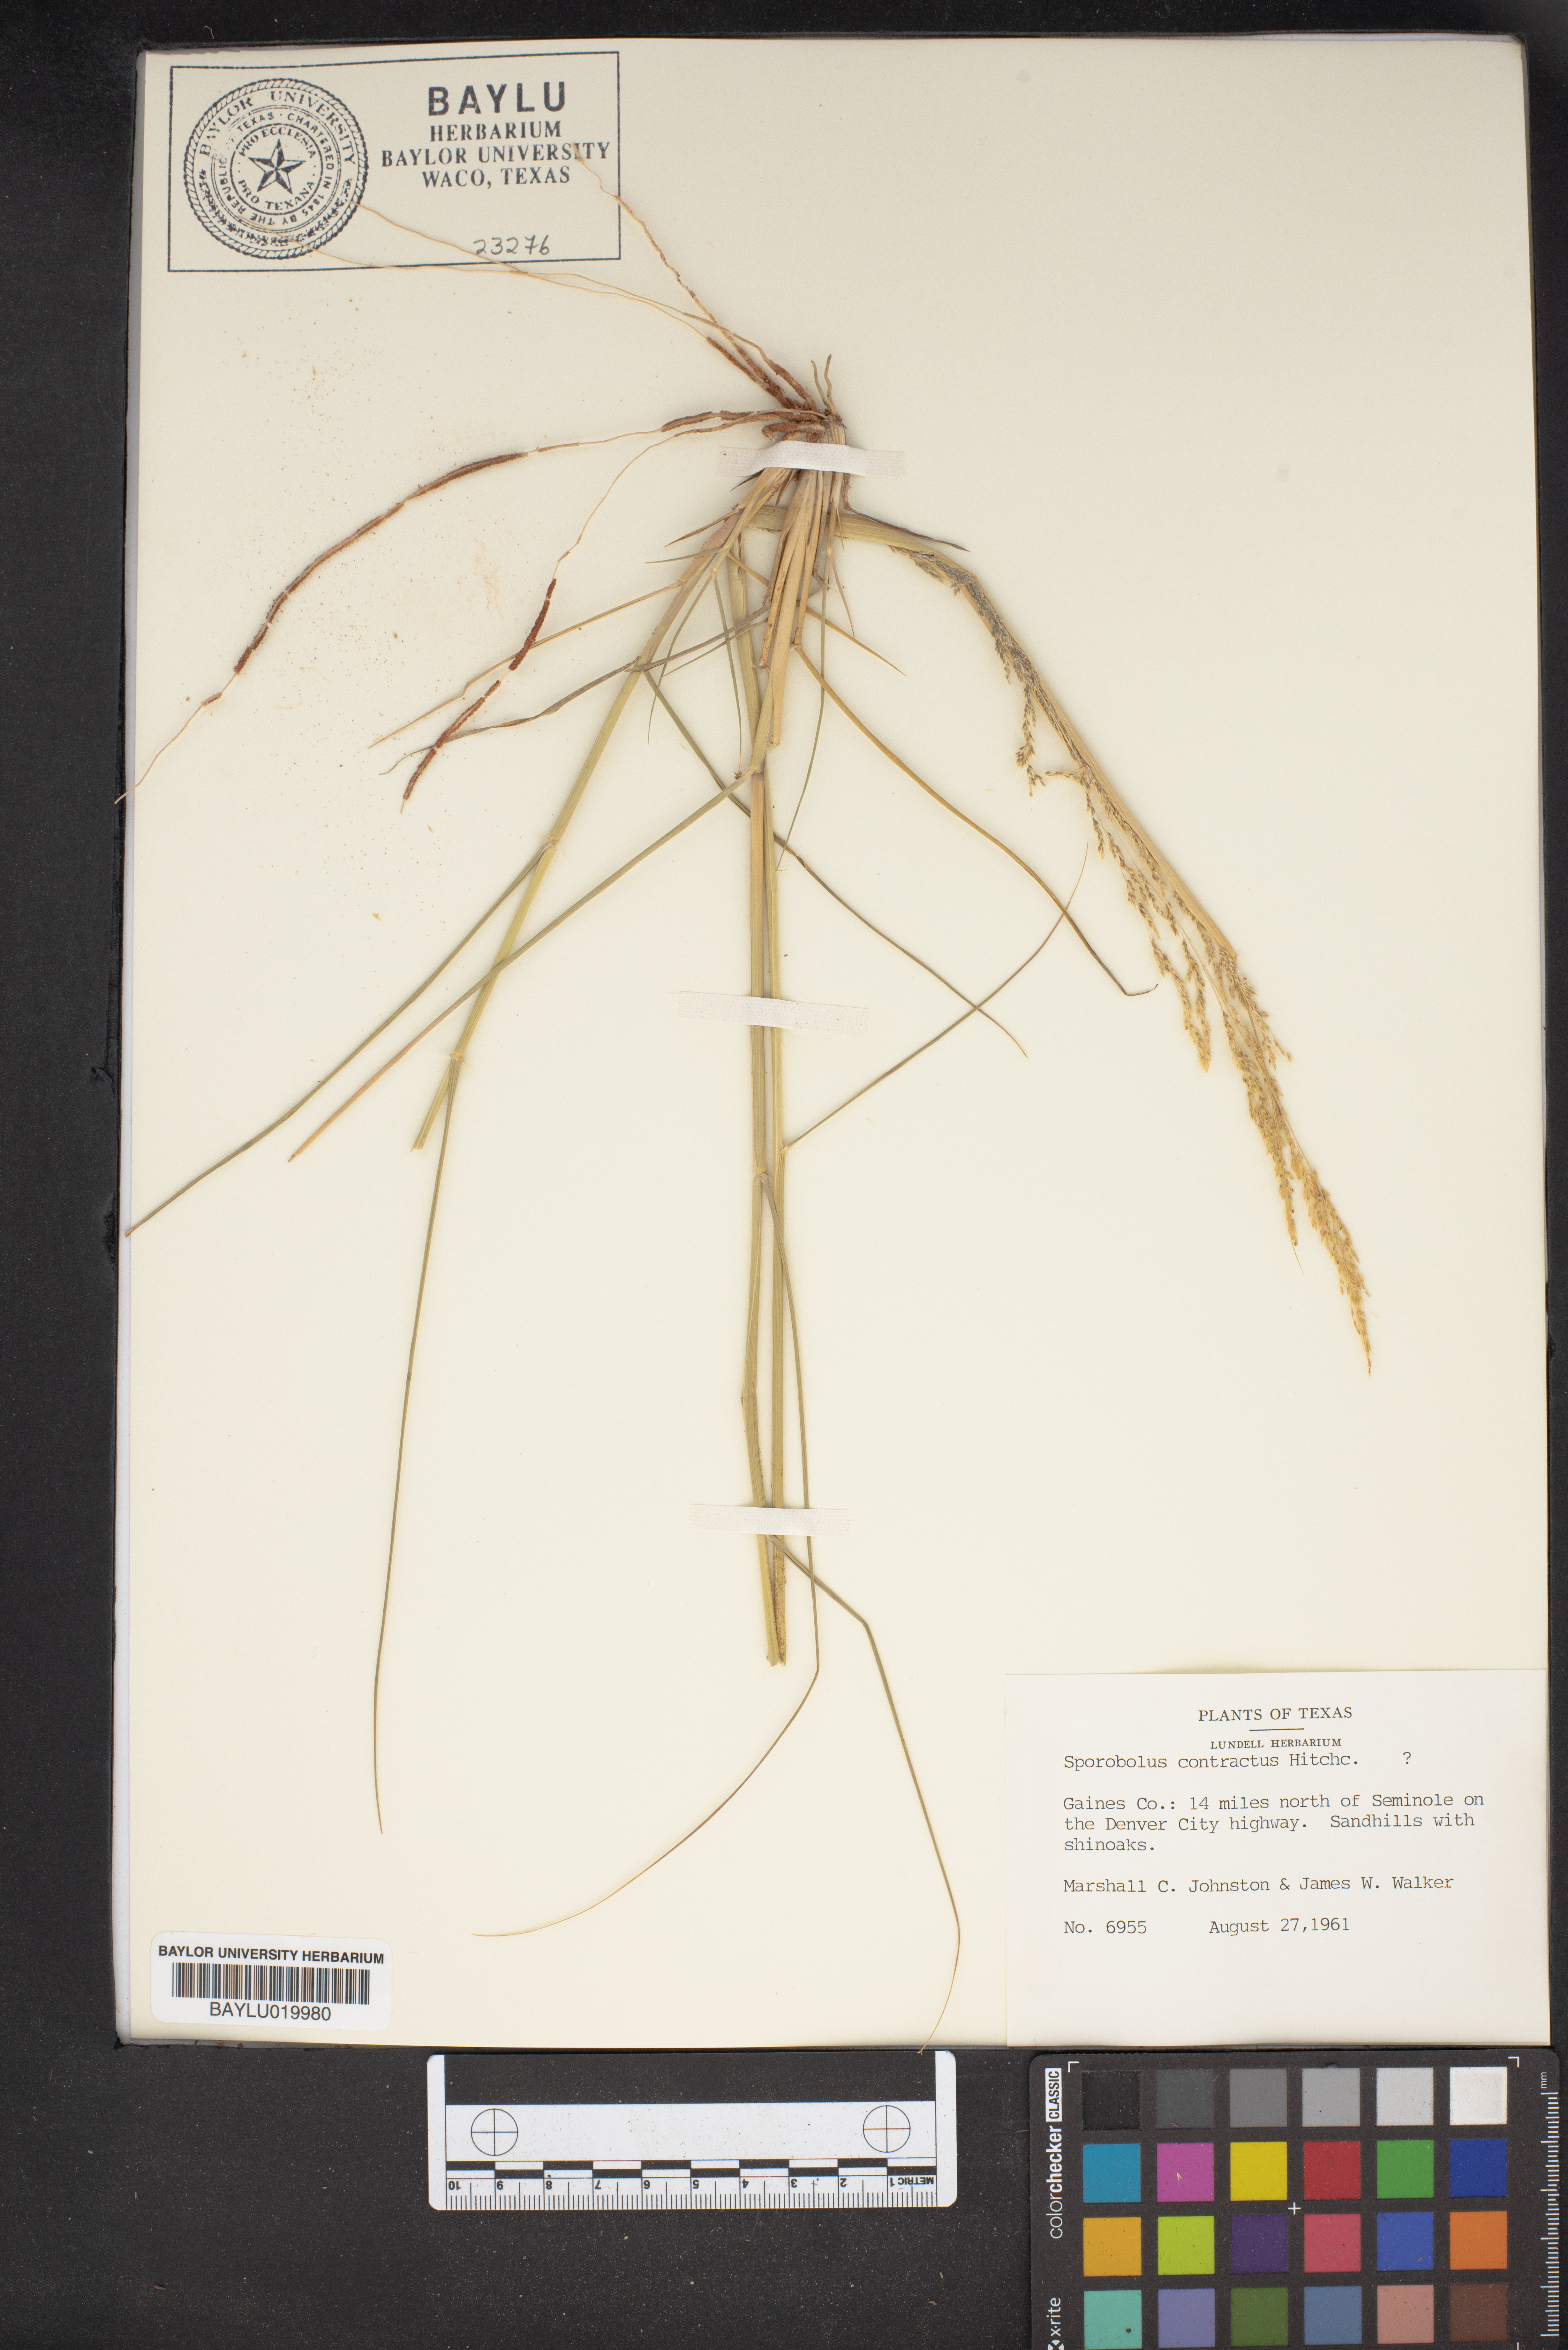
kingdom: Plantae
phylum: Tracheophyta
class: Liliopsida
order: Poales
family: Poaceae
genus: Sporobolus
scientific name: Sporobolus contractus
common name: Spike dropseed
